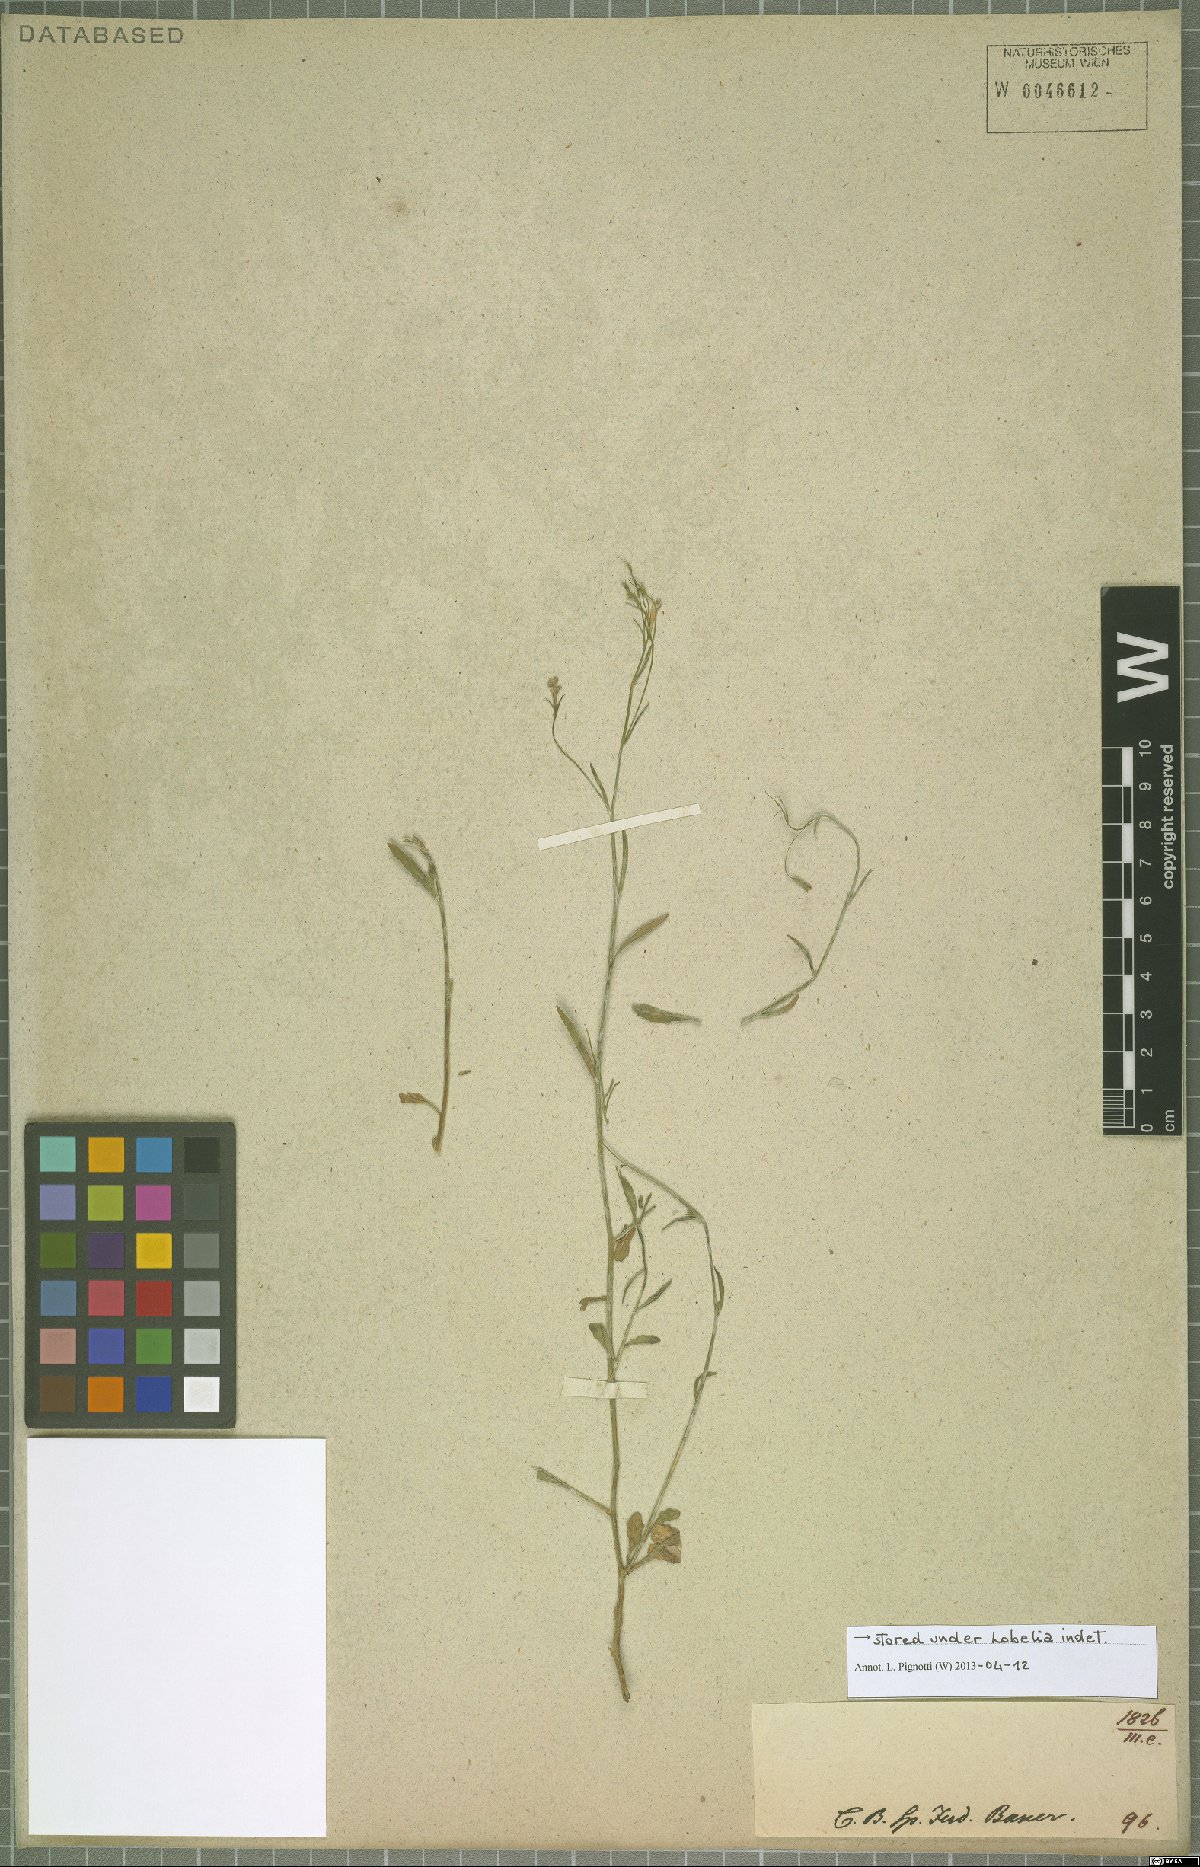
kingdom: Plantae
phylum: Tracheophyta
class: Magnoliopsida
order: Asterales
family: Campanulaceae
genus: Lobelia
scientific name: Lobelia
